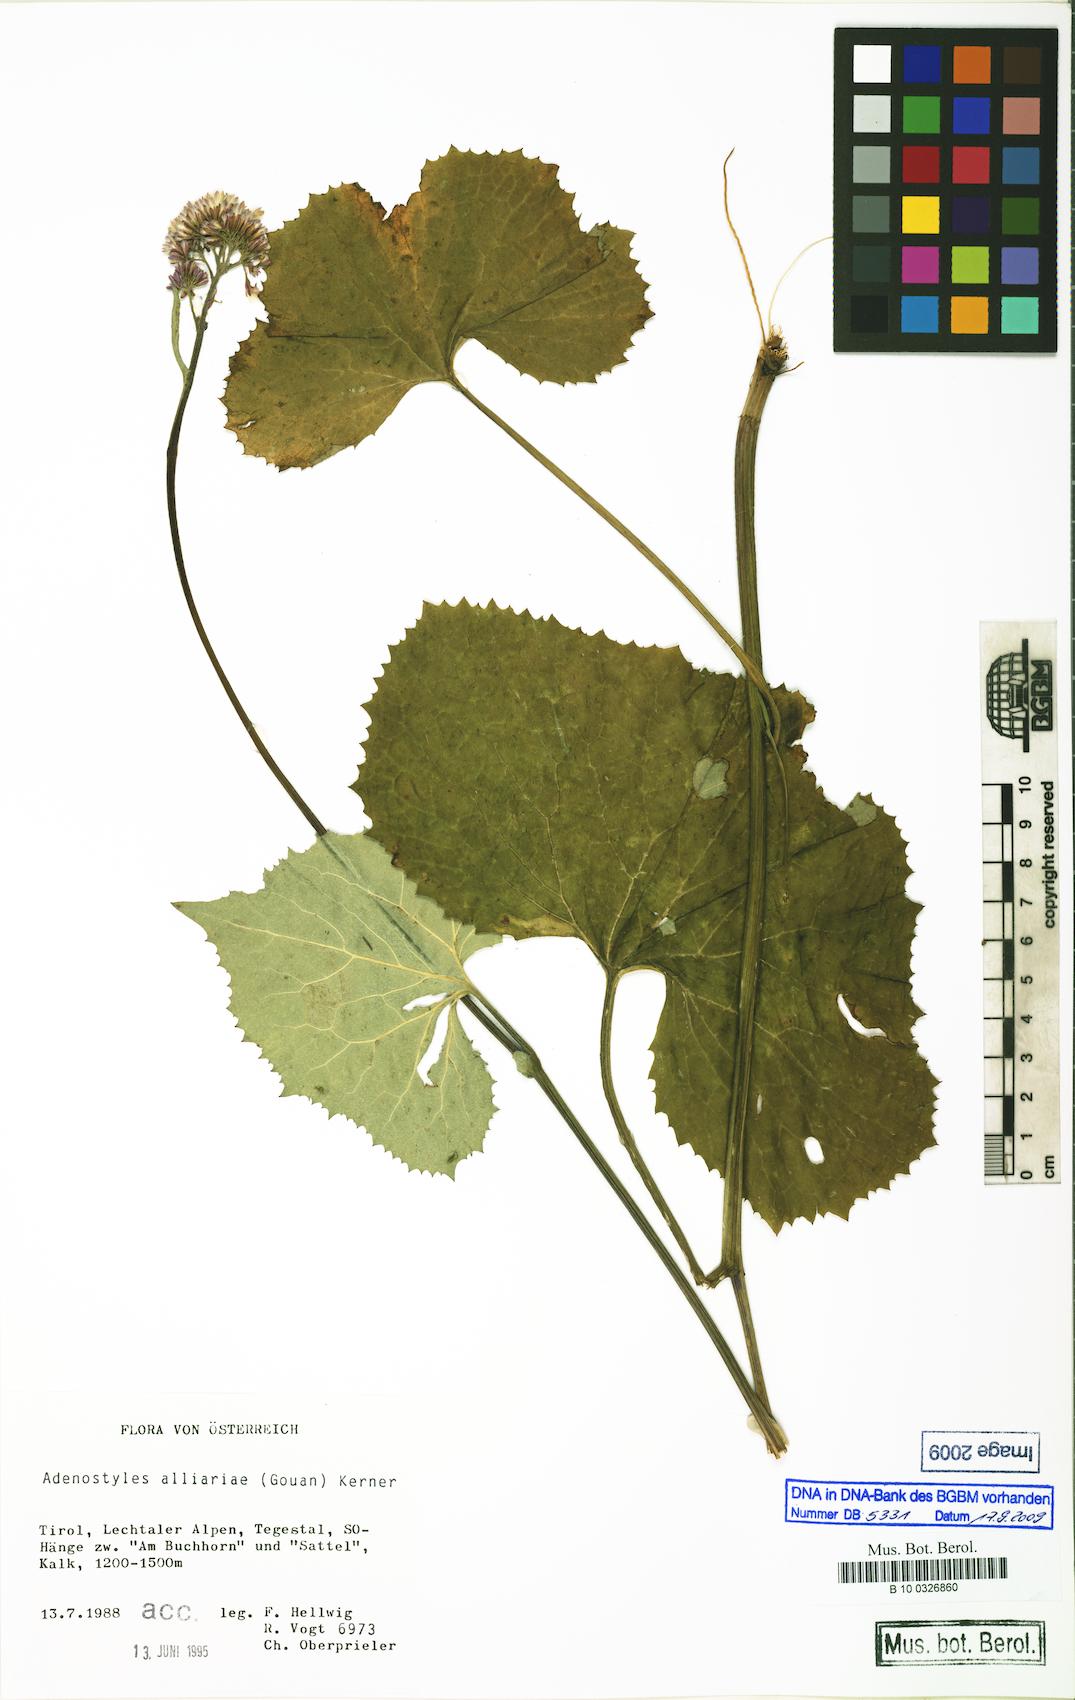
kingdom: Plantae
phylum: Tracheophyta
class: Magnoliopsida
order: Asterales
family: Asteraceae
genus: Adenostyles
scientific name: Adenostyles alliariae
